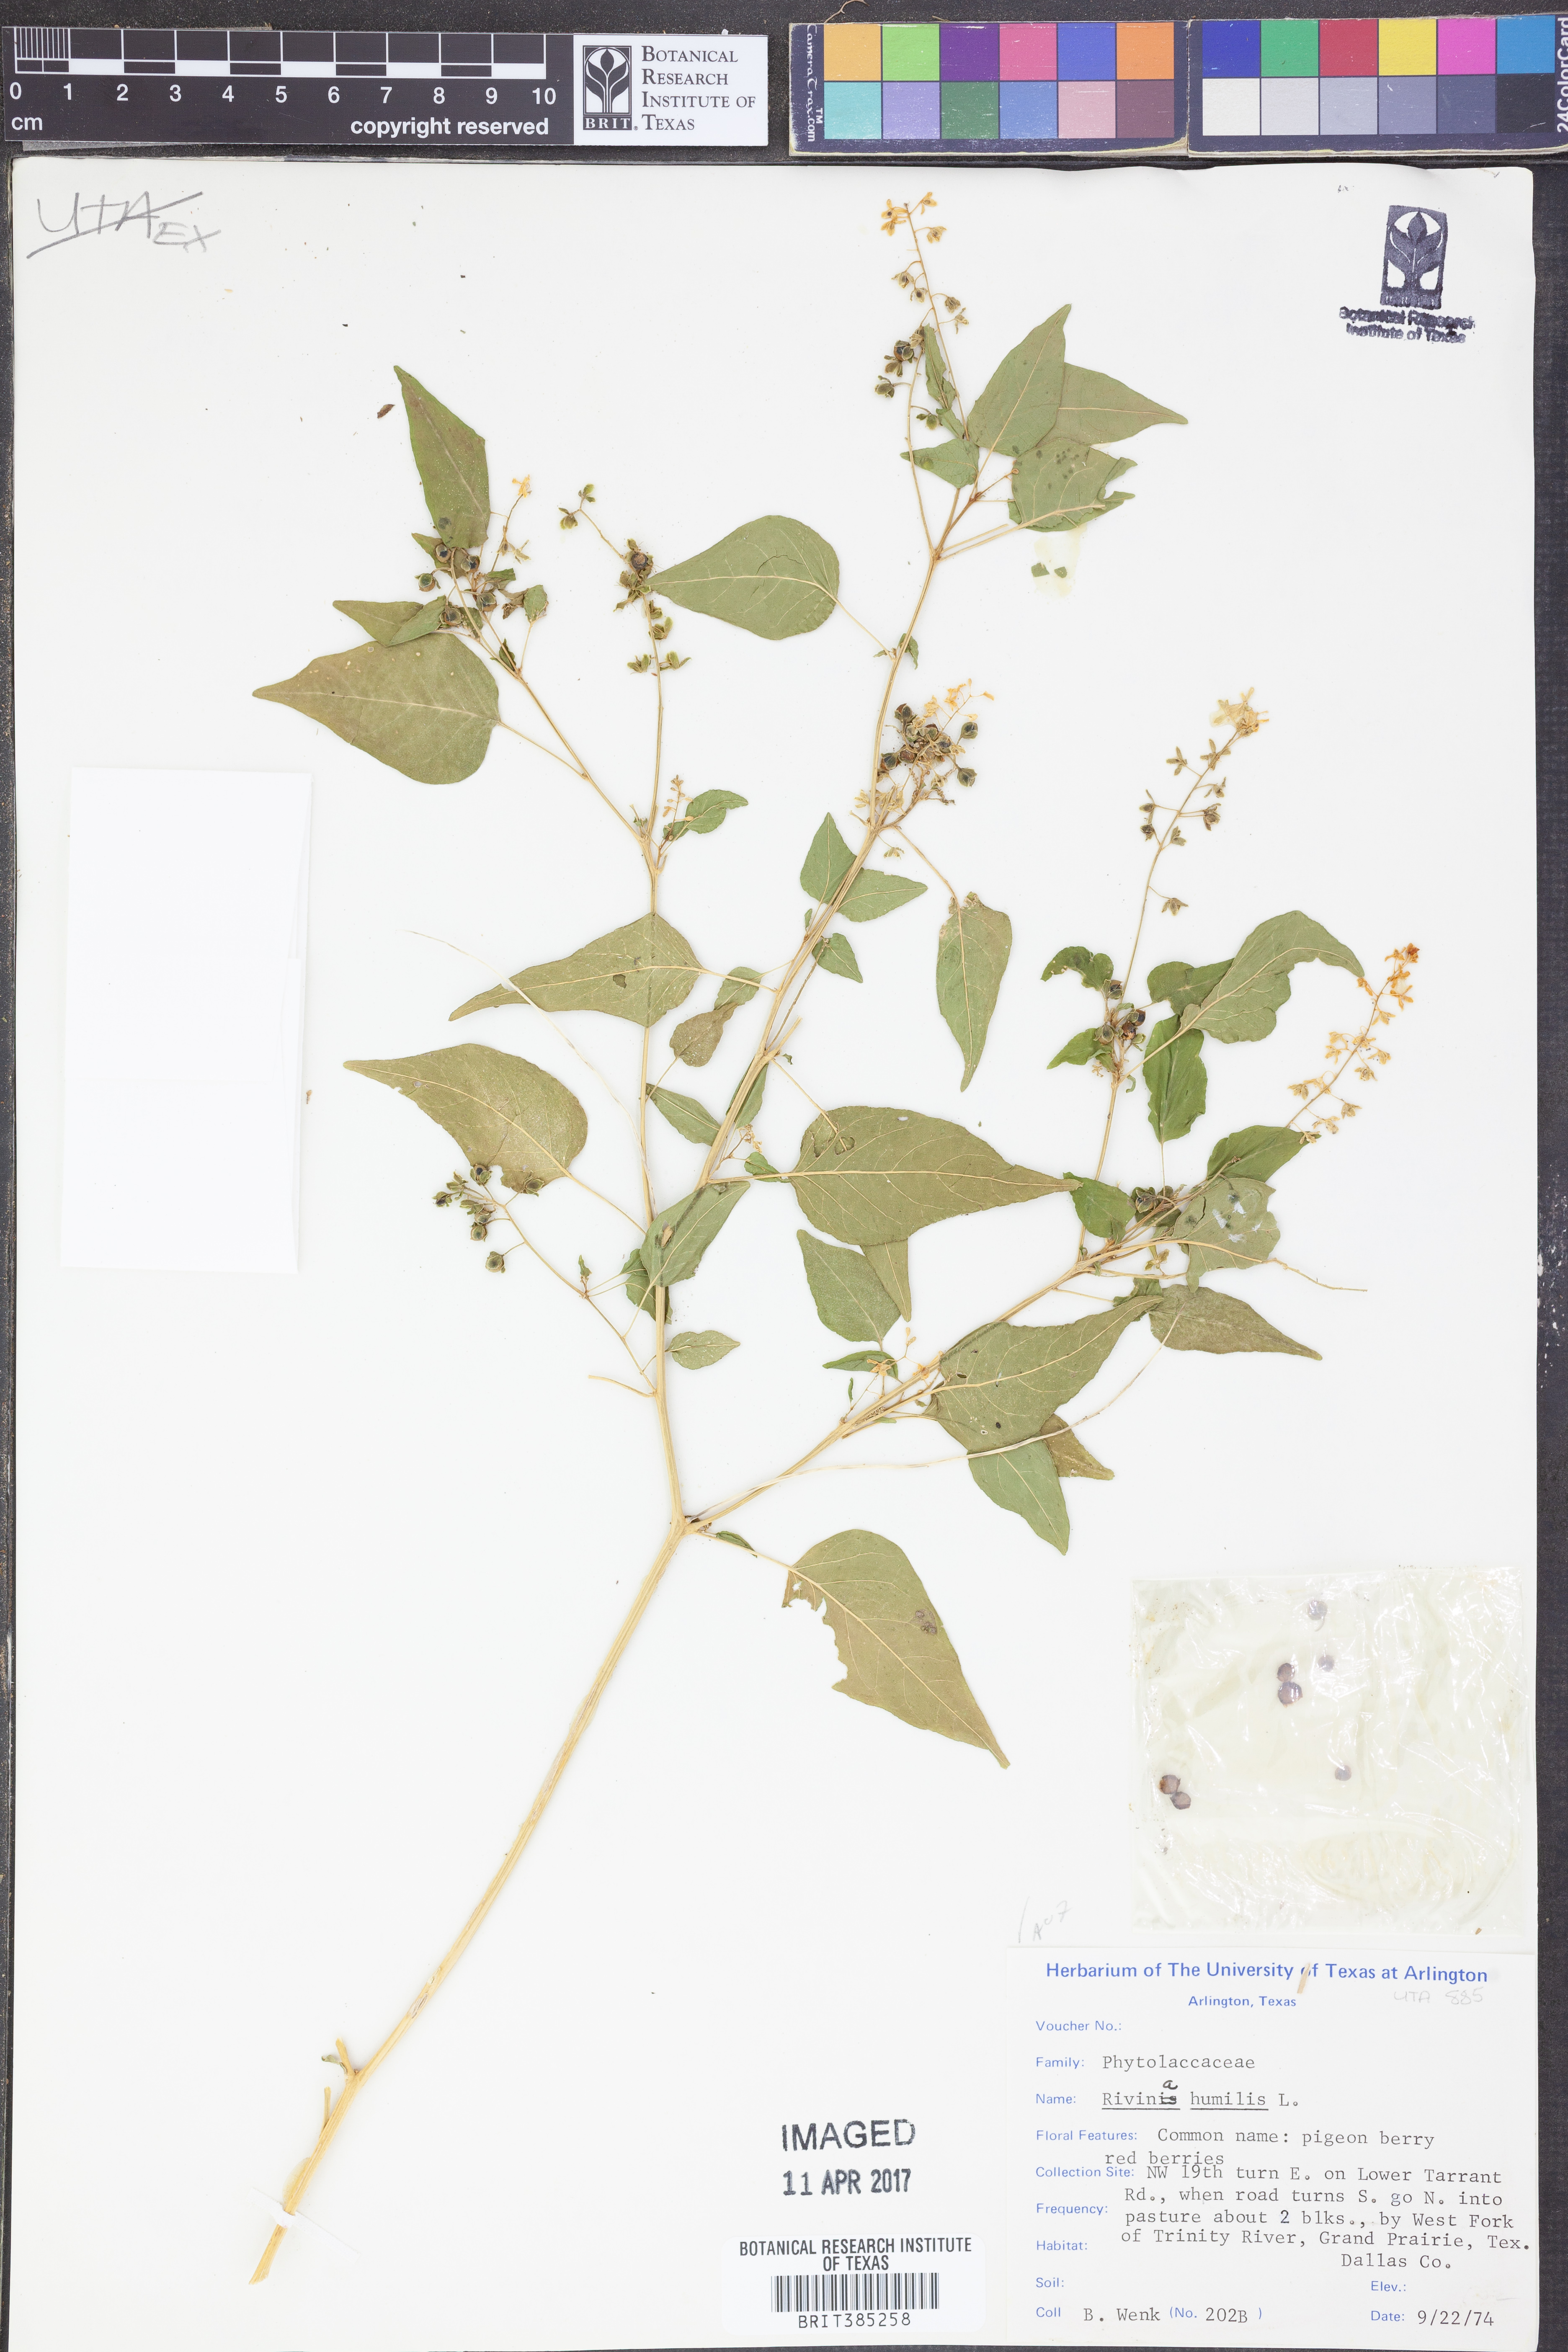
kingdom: Plantae
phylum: Tracheophyta
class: Magnoliopsida
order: Caryophyllales
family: Phytolaccaceae
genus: Rivina
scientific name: Rivina humilis
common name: Rougeplant
